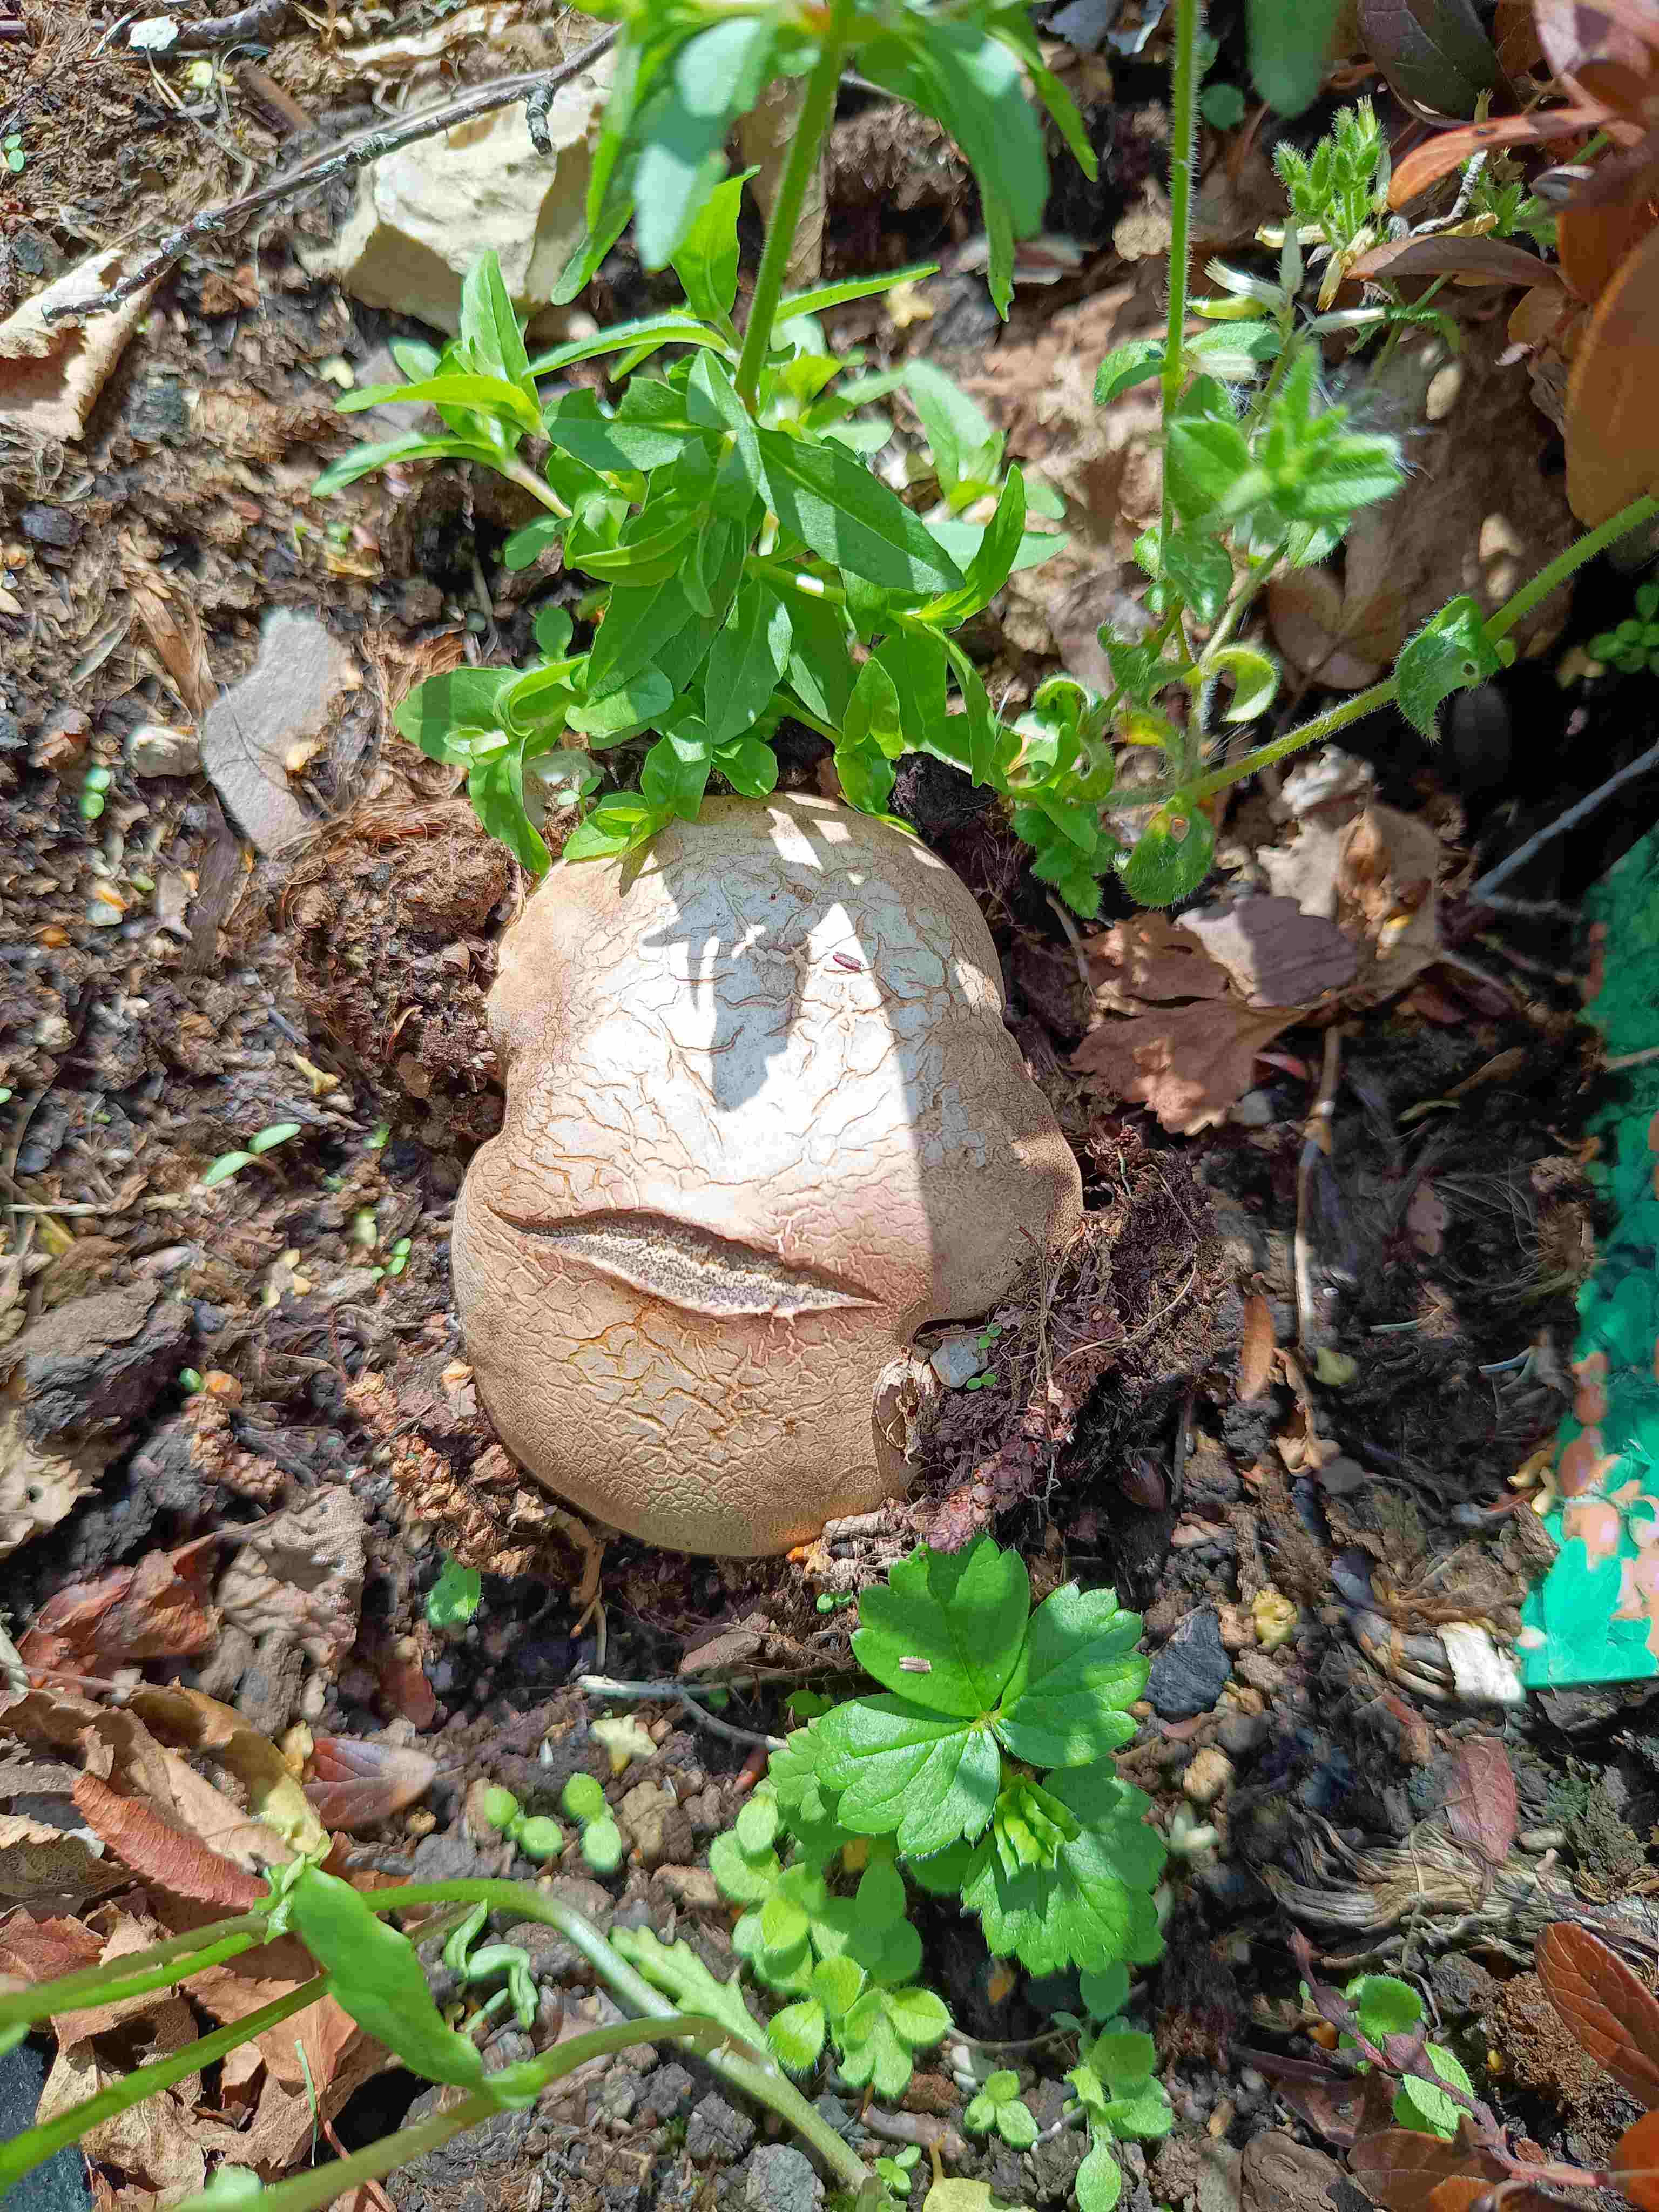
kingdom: Fungi
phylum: Basidiomycota
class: Agaricomycetes
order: Boletales
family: Sclerodermataceae
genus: Scleroderma
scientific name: Scleroderma bovista
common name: bovist-bruskbold
